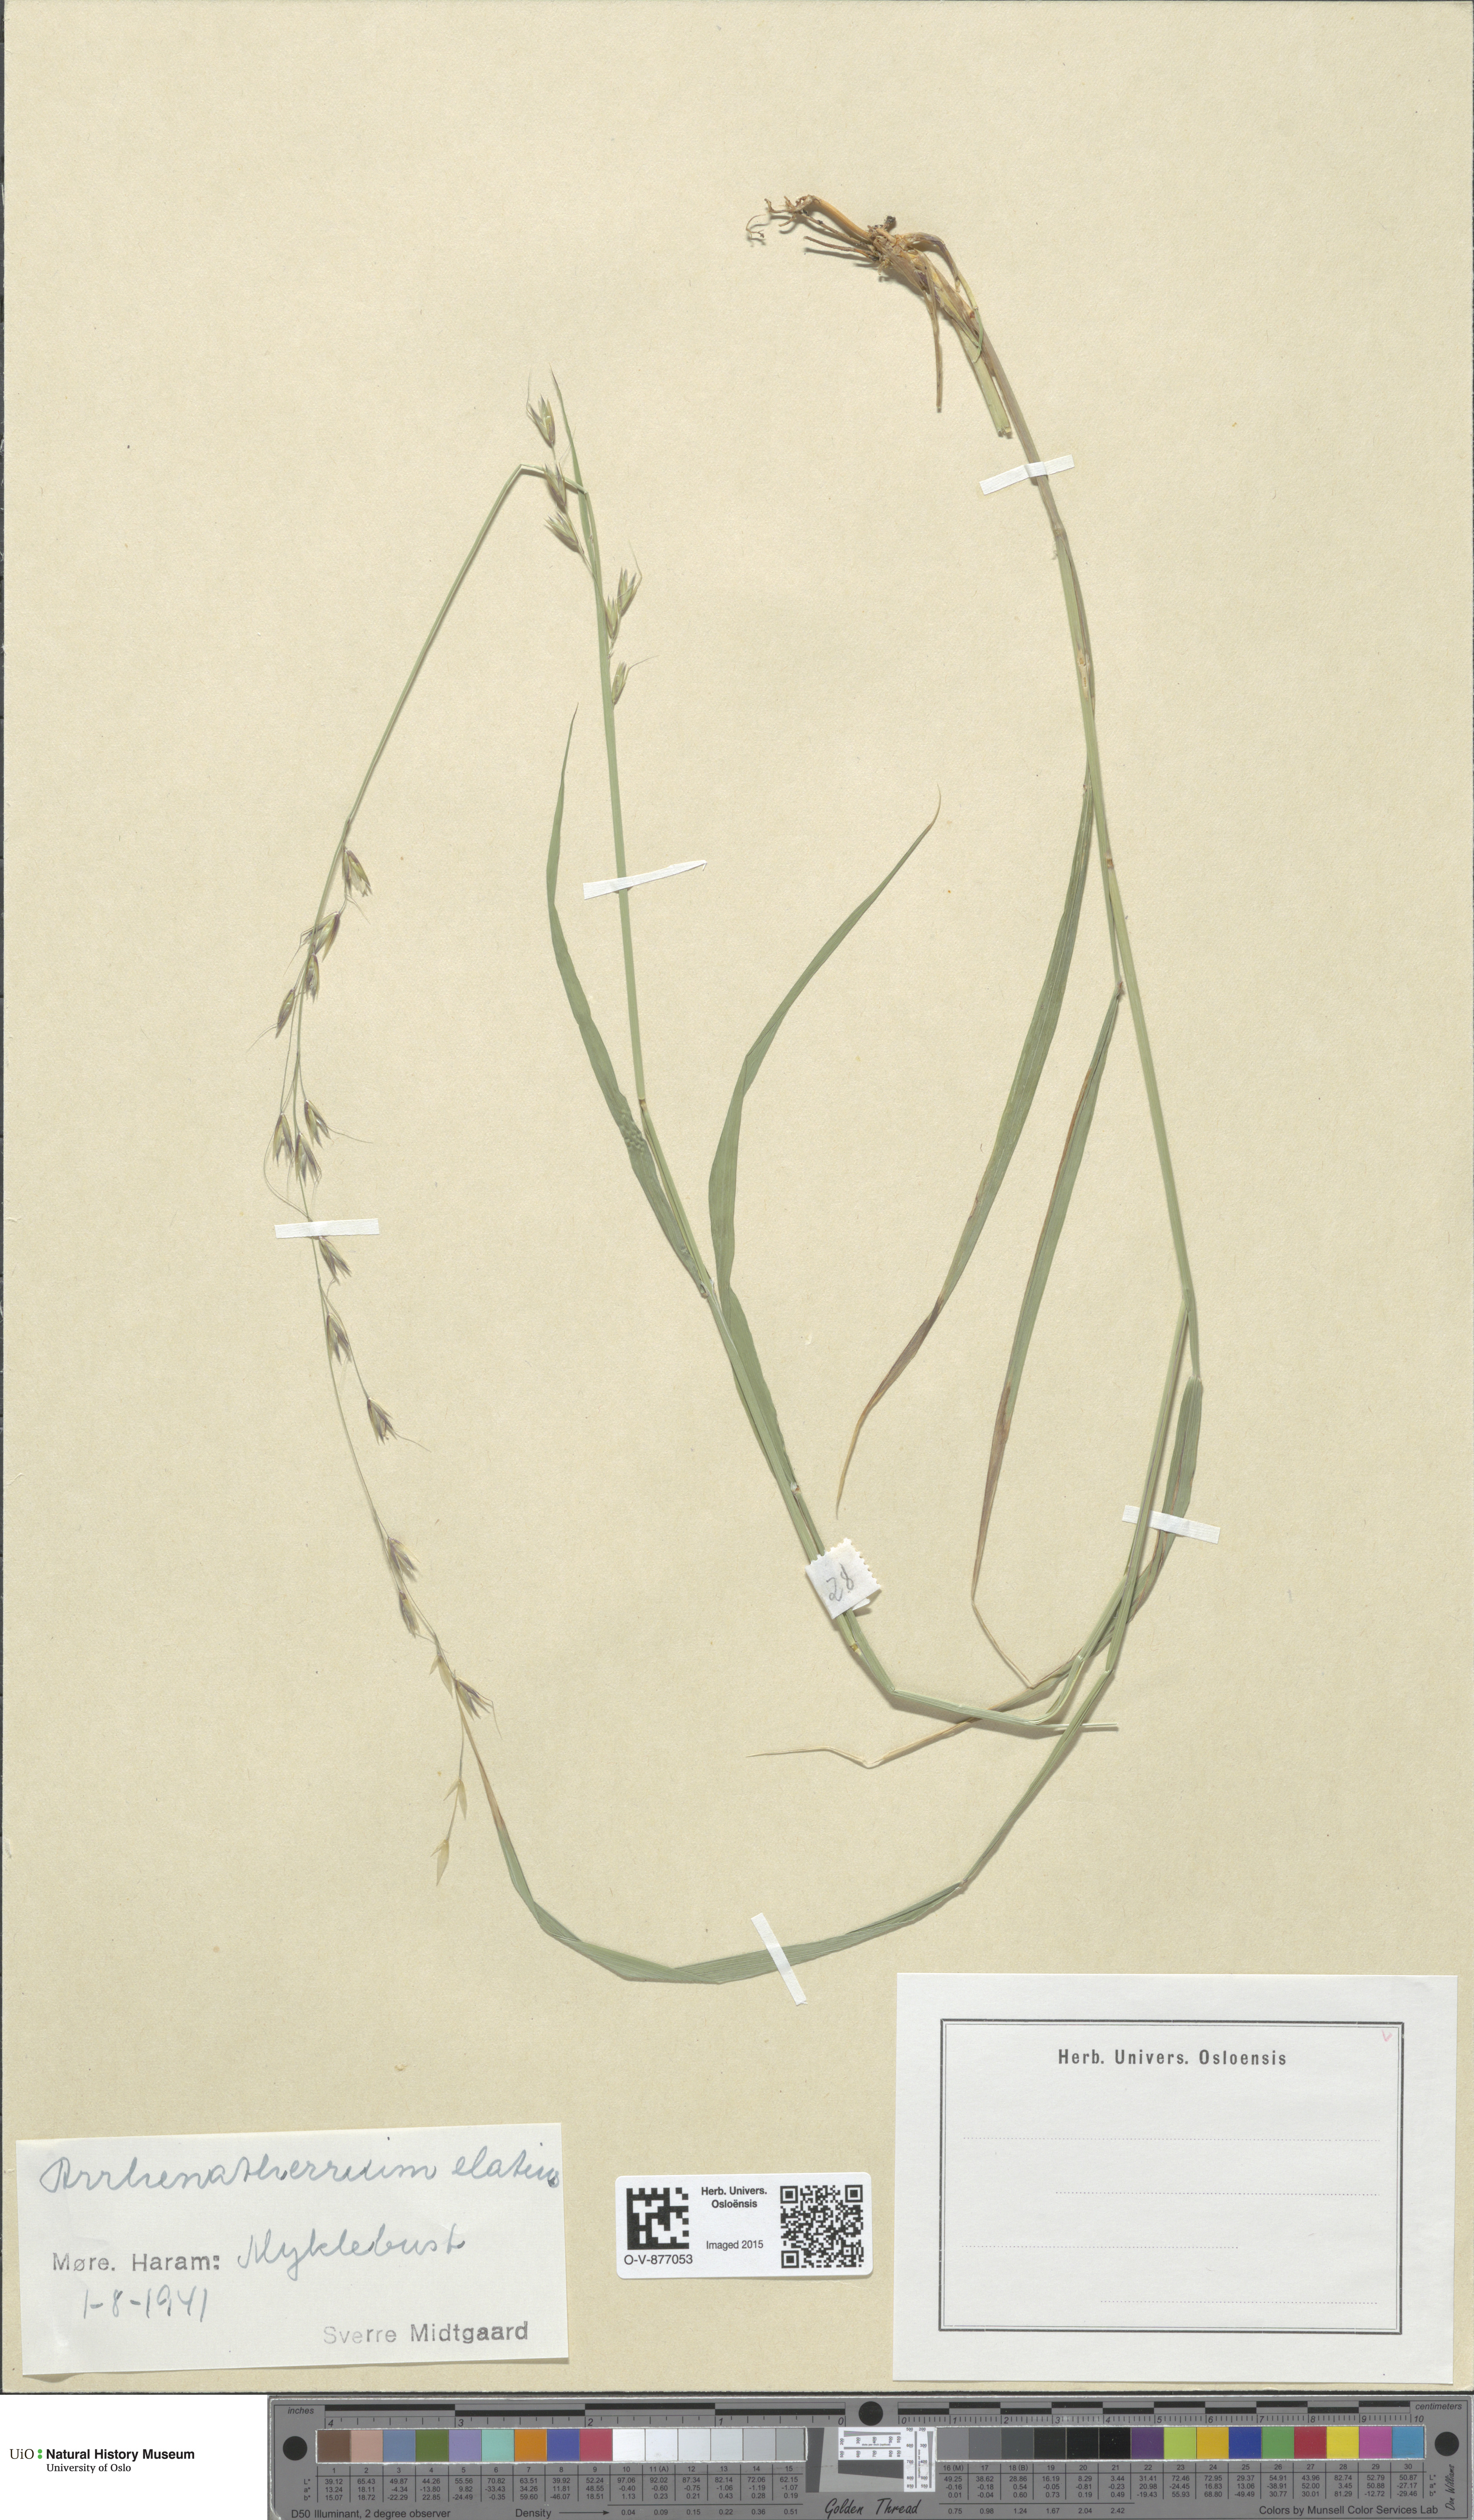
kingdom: Plantae
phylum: Tracheophyta
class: Liliopsida
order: Poales
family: Poaceae
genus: Arrhenatherum
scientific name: Arrhenatherum elatius
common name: Tall oatgrass
